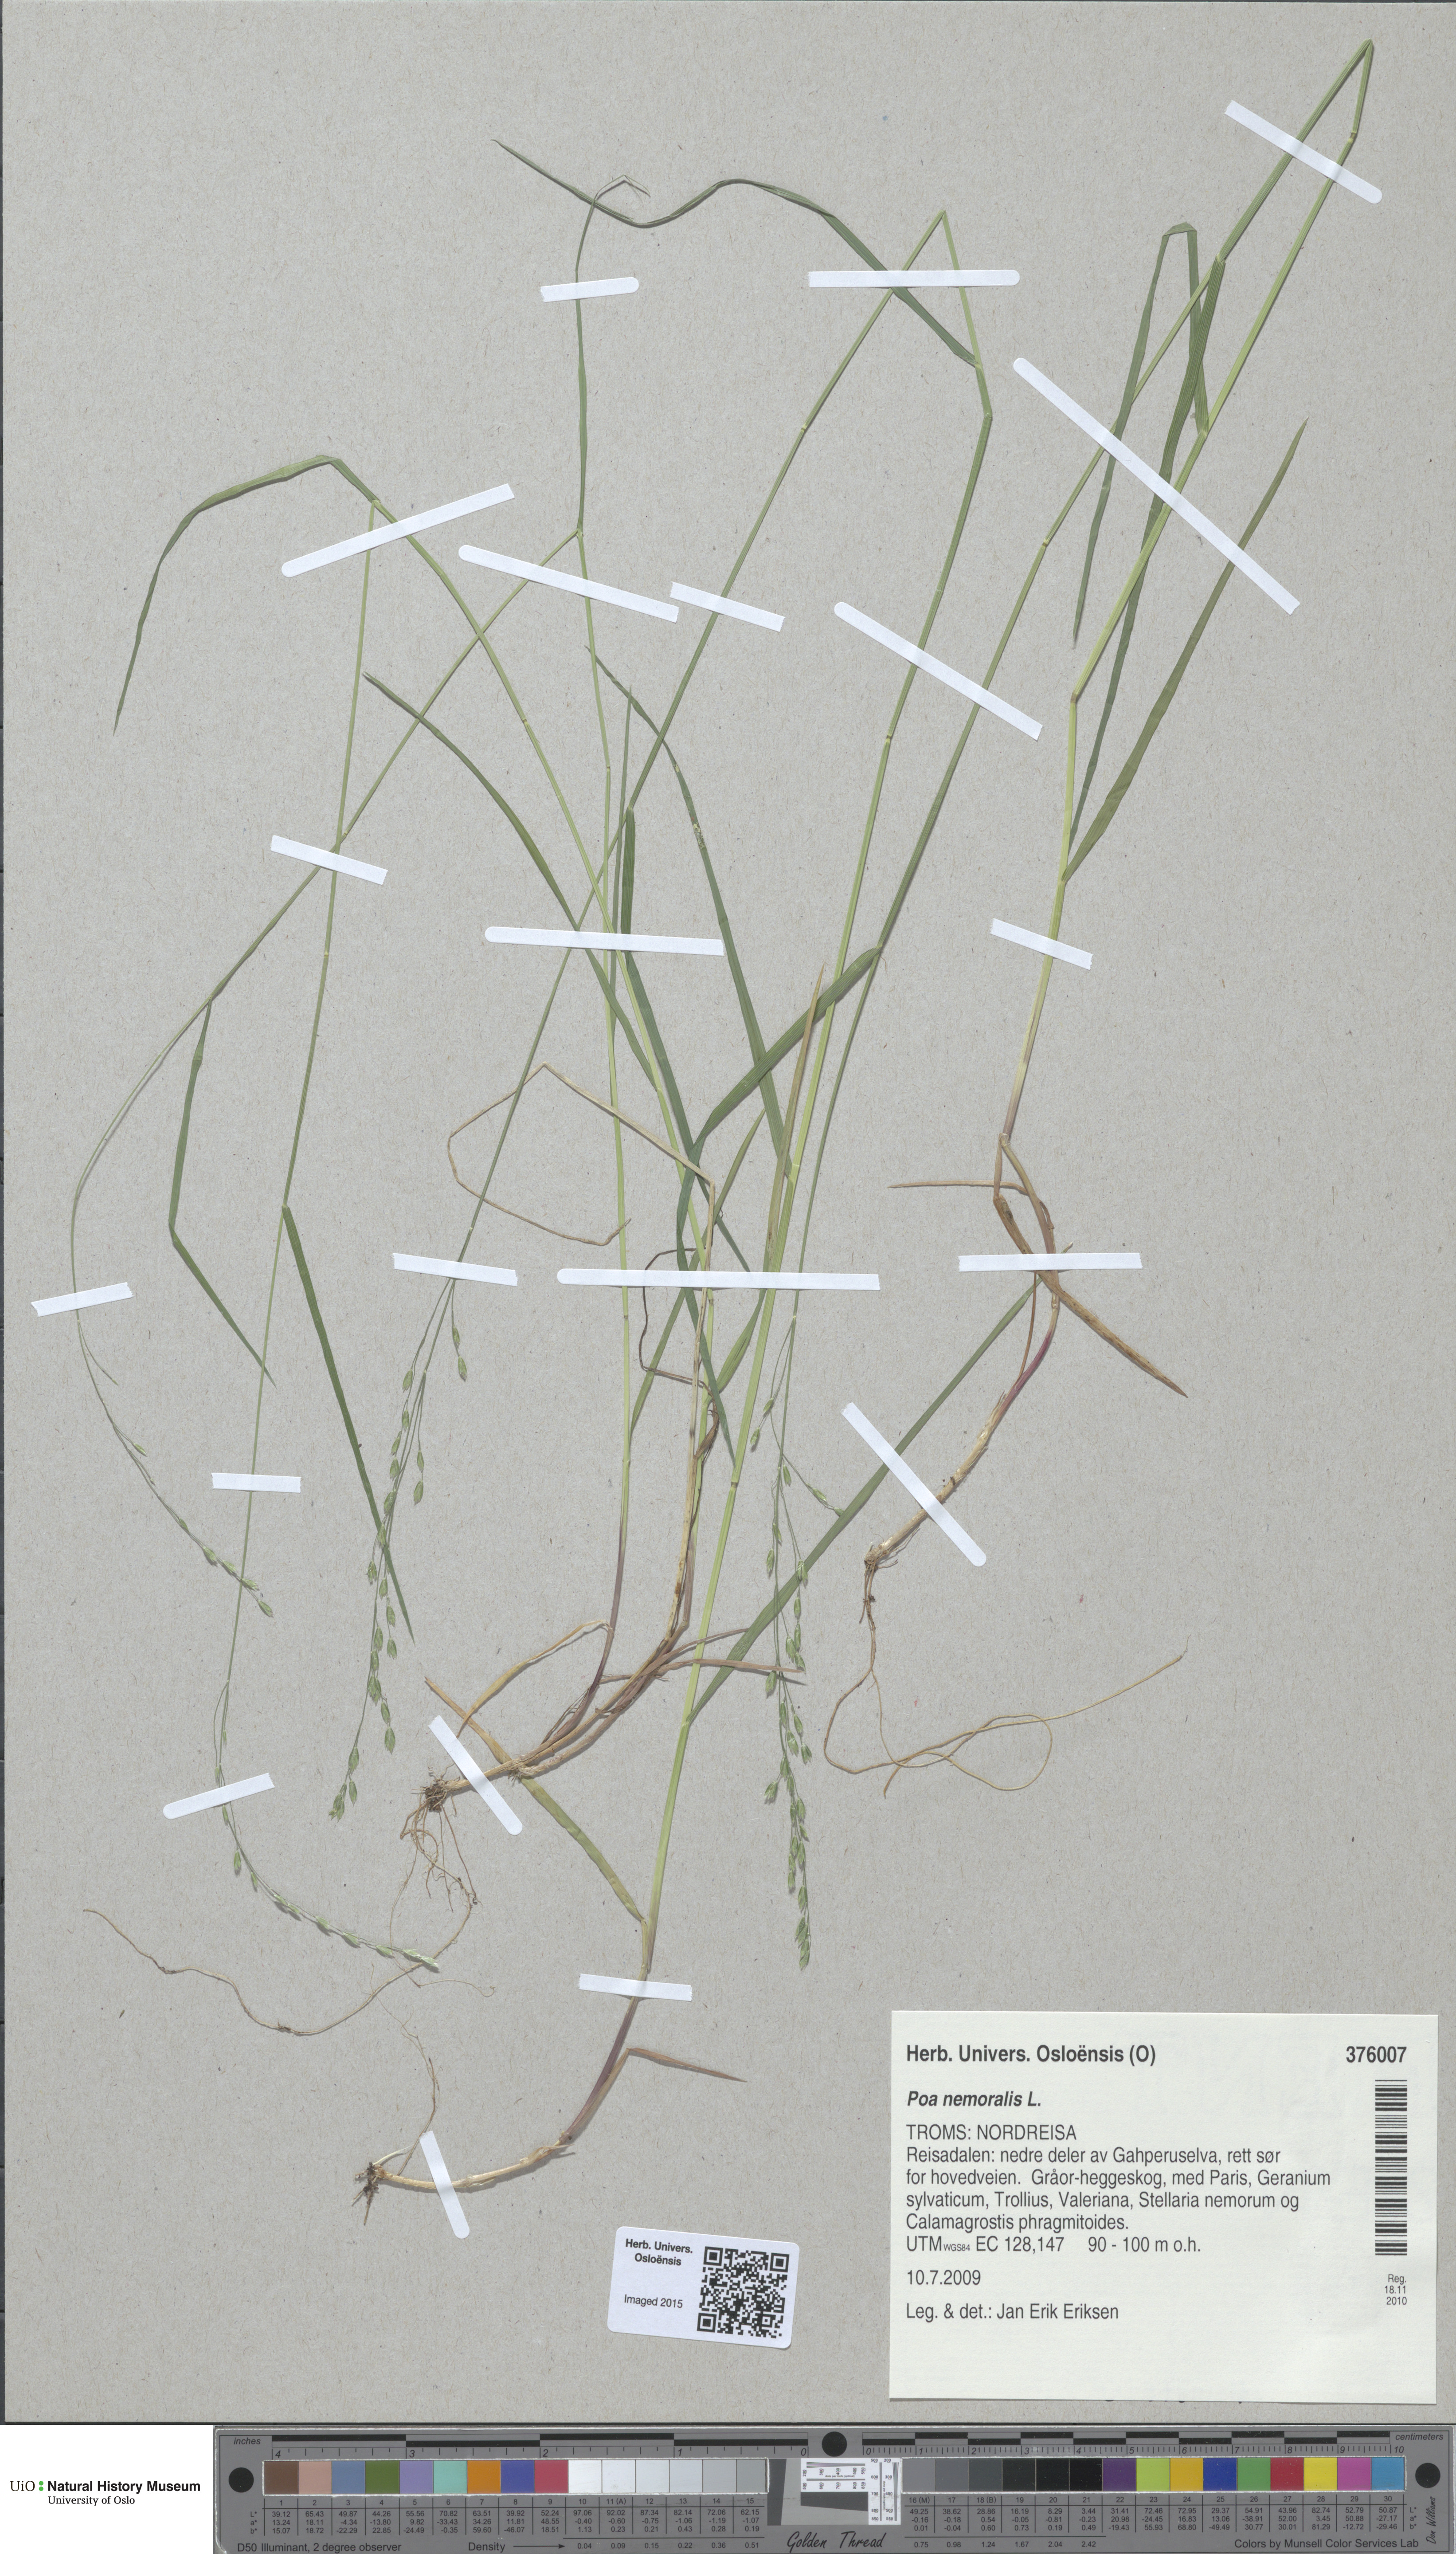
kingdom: Plantae
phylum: Tracheophyta
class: Liliopsida
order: Poales
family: Poaceae
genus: Poa
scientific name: Poa nemoralis
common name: Wood bluegrass
